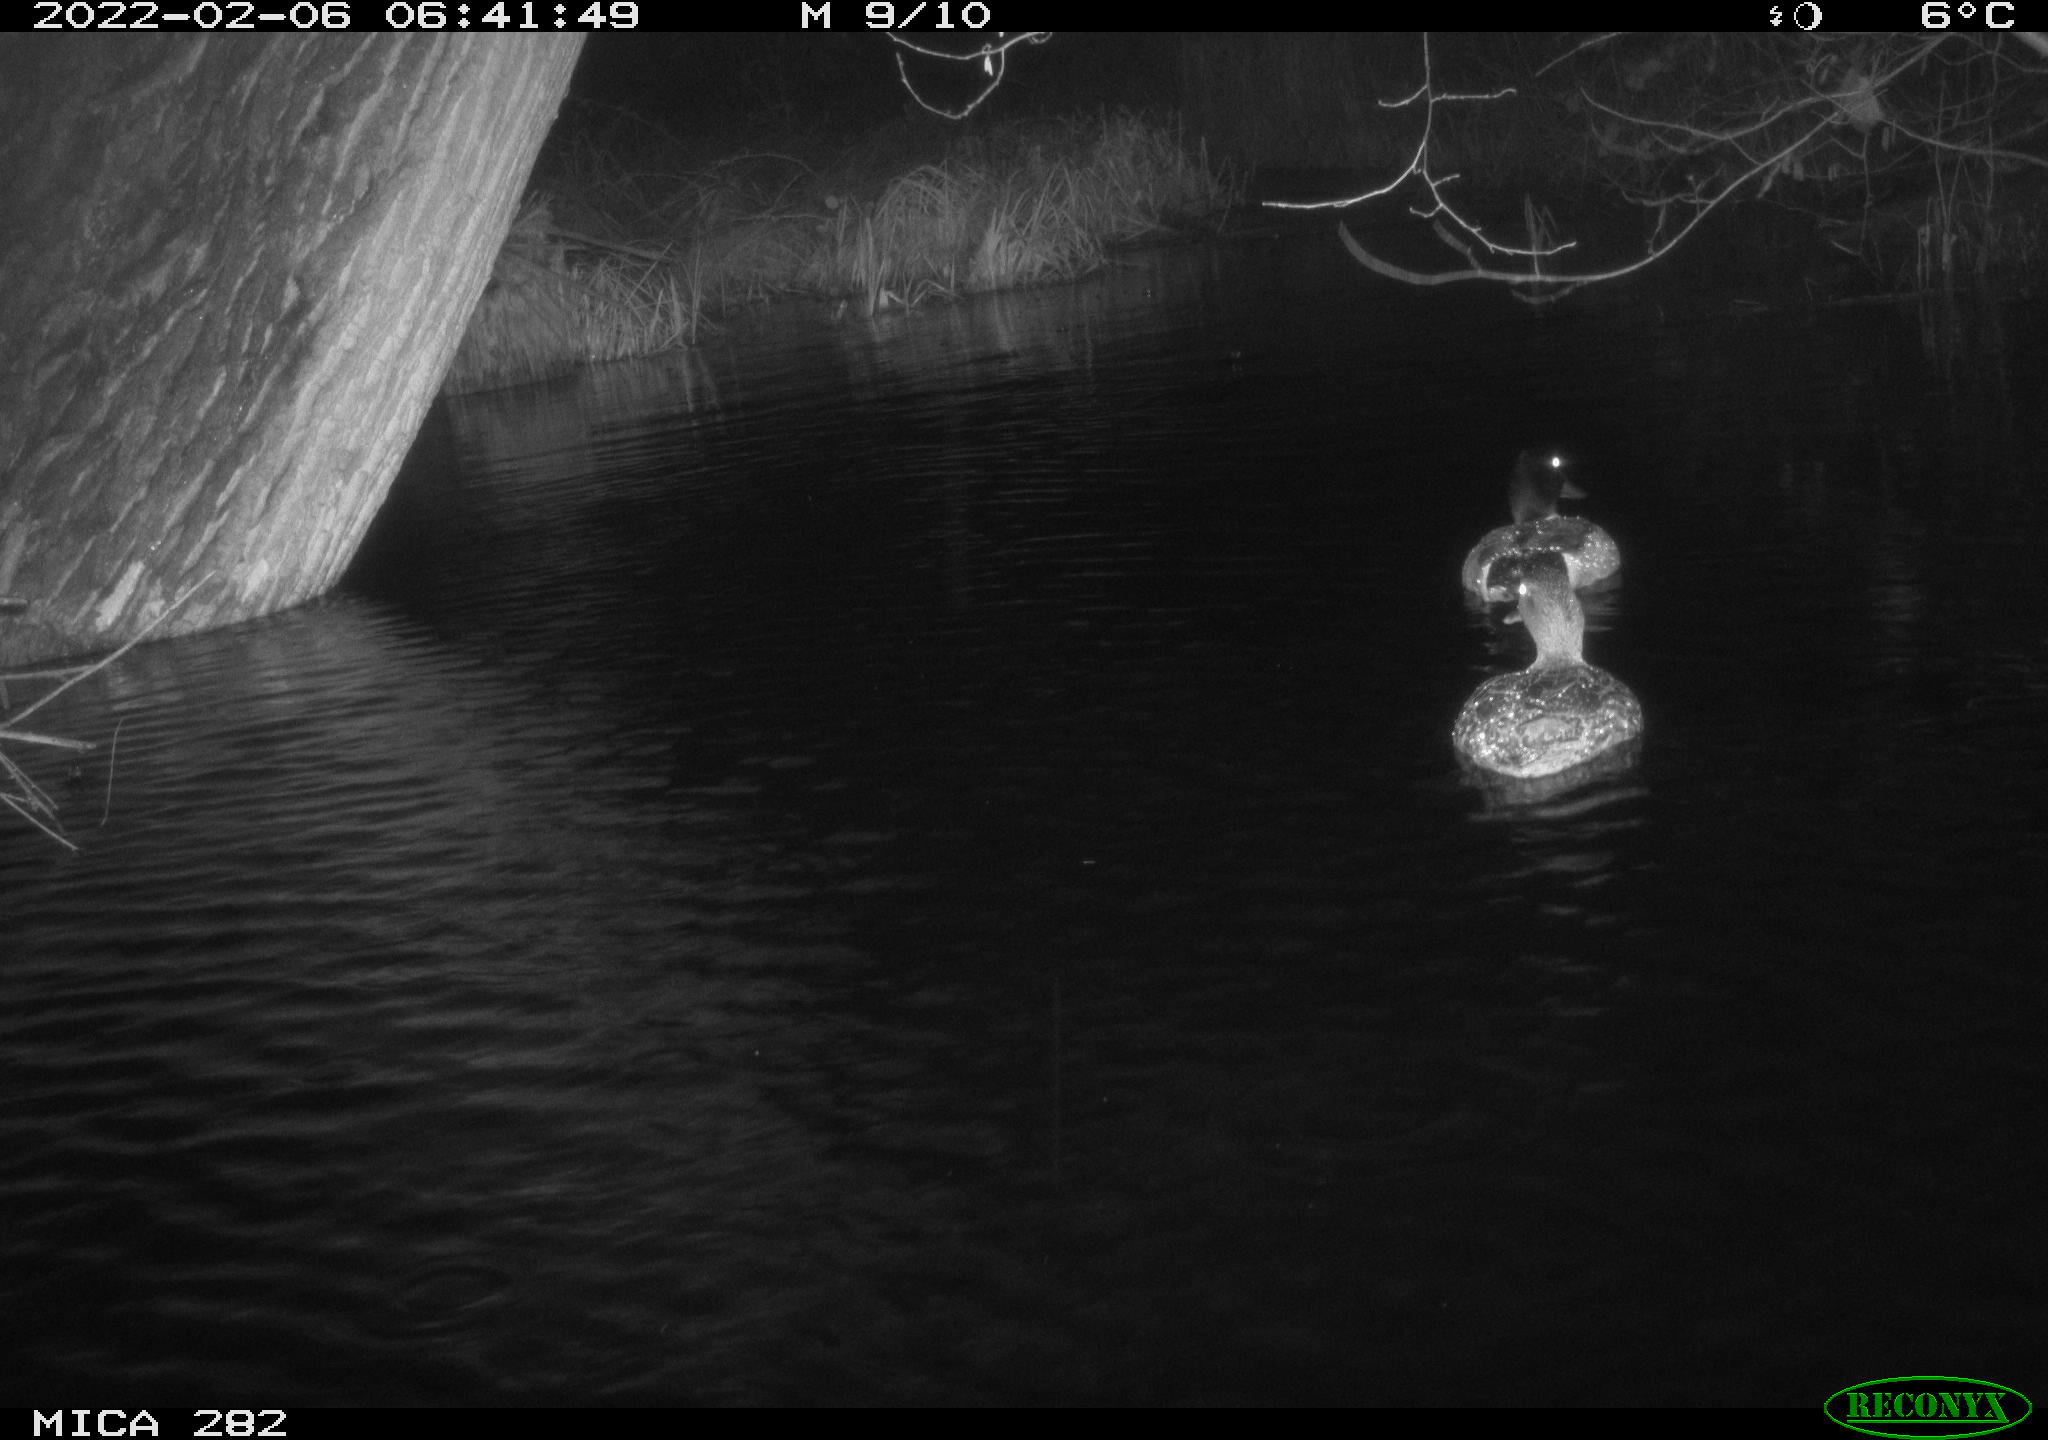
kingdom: Animalia
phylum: Chordata
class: Aves
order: Anseriformes
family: Anatidae
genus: Anas
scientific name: Anas platyrhynchos
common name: Mallard
